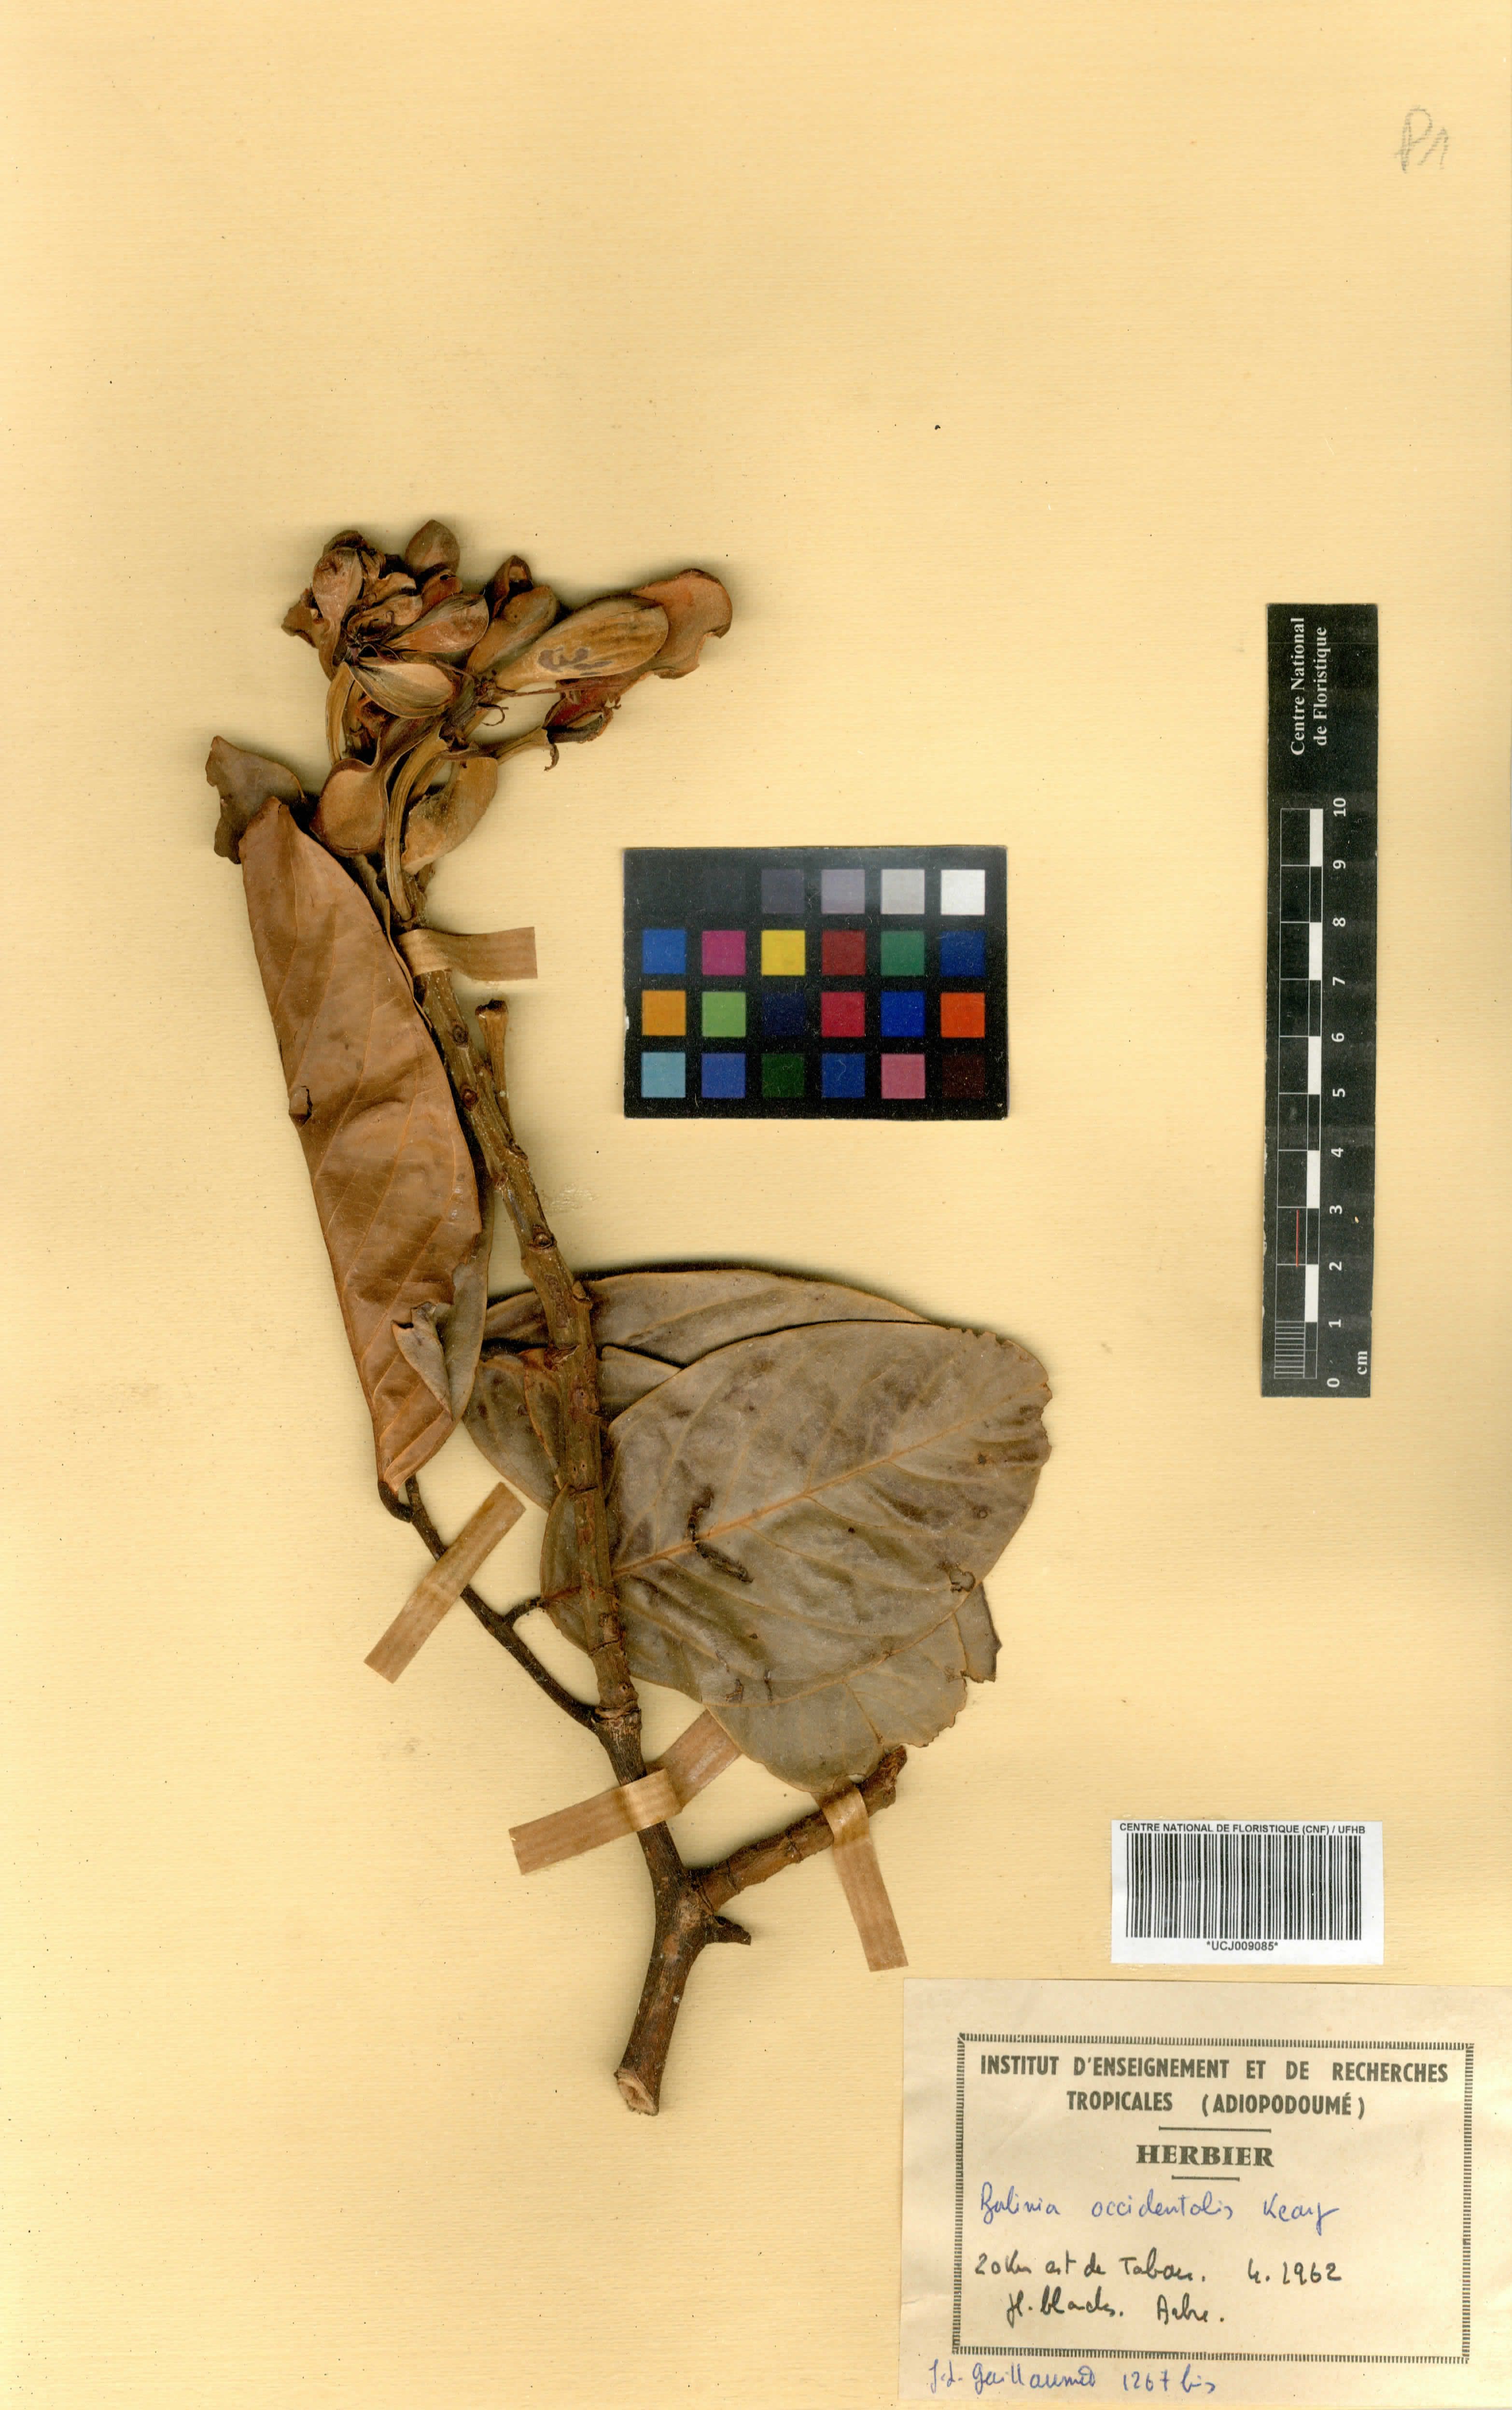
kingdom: Plantae
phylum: Tracheophyta
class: Magnoliopsida
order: Fabales
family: Fabaceae
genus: Berlinia
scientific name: Berlinia occidentalis
